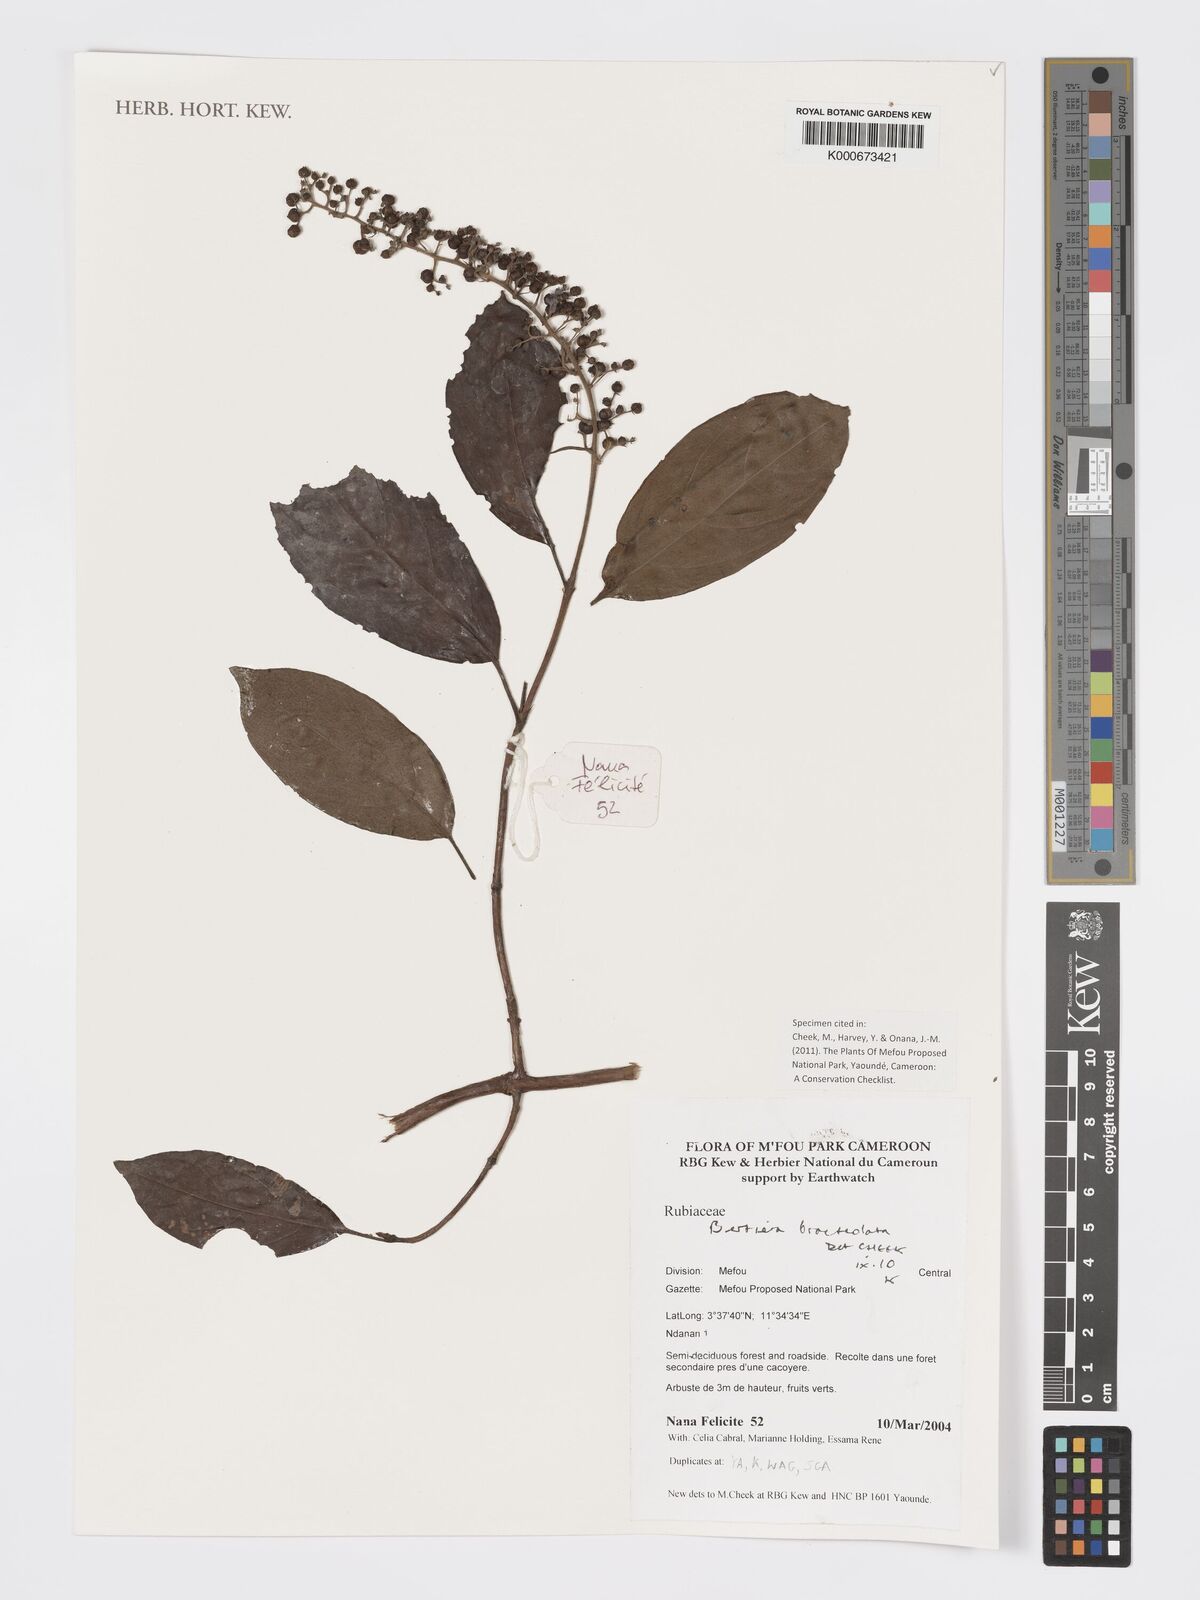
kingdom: Plantae
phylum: Tracheophyta
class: Magnoliopsida
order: Gentianales
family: Rubiaceae
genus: Bertiera
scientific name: Bertiera bracteolata
